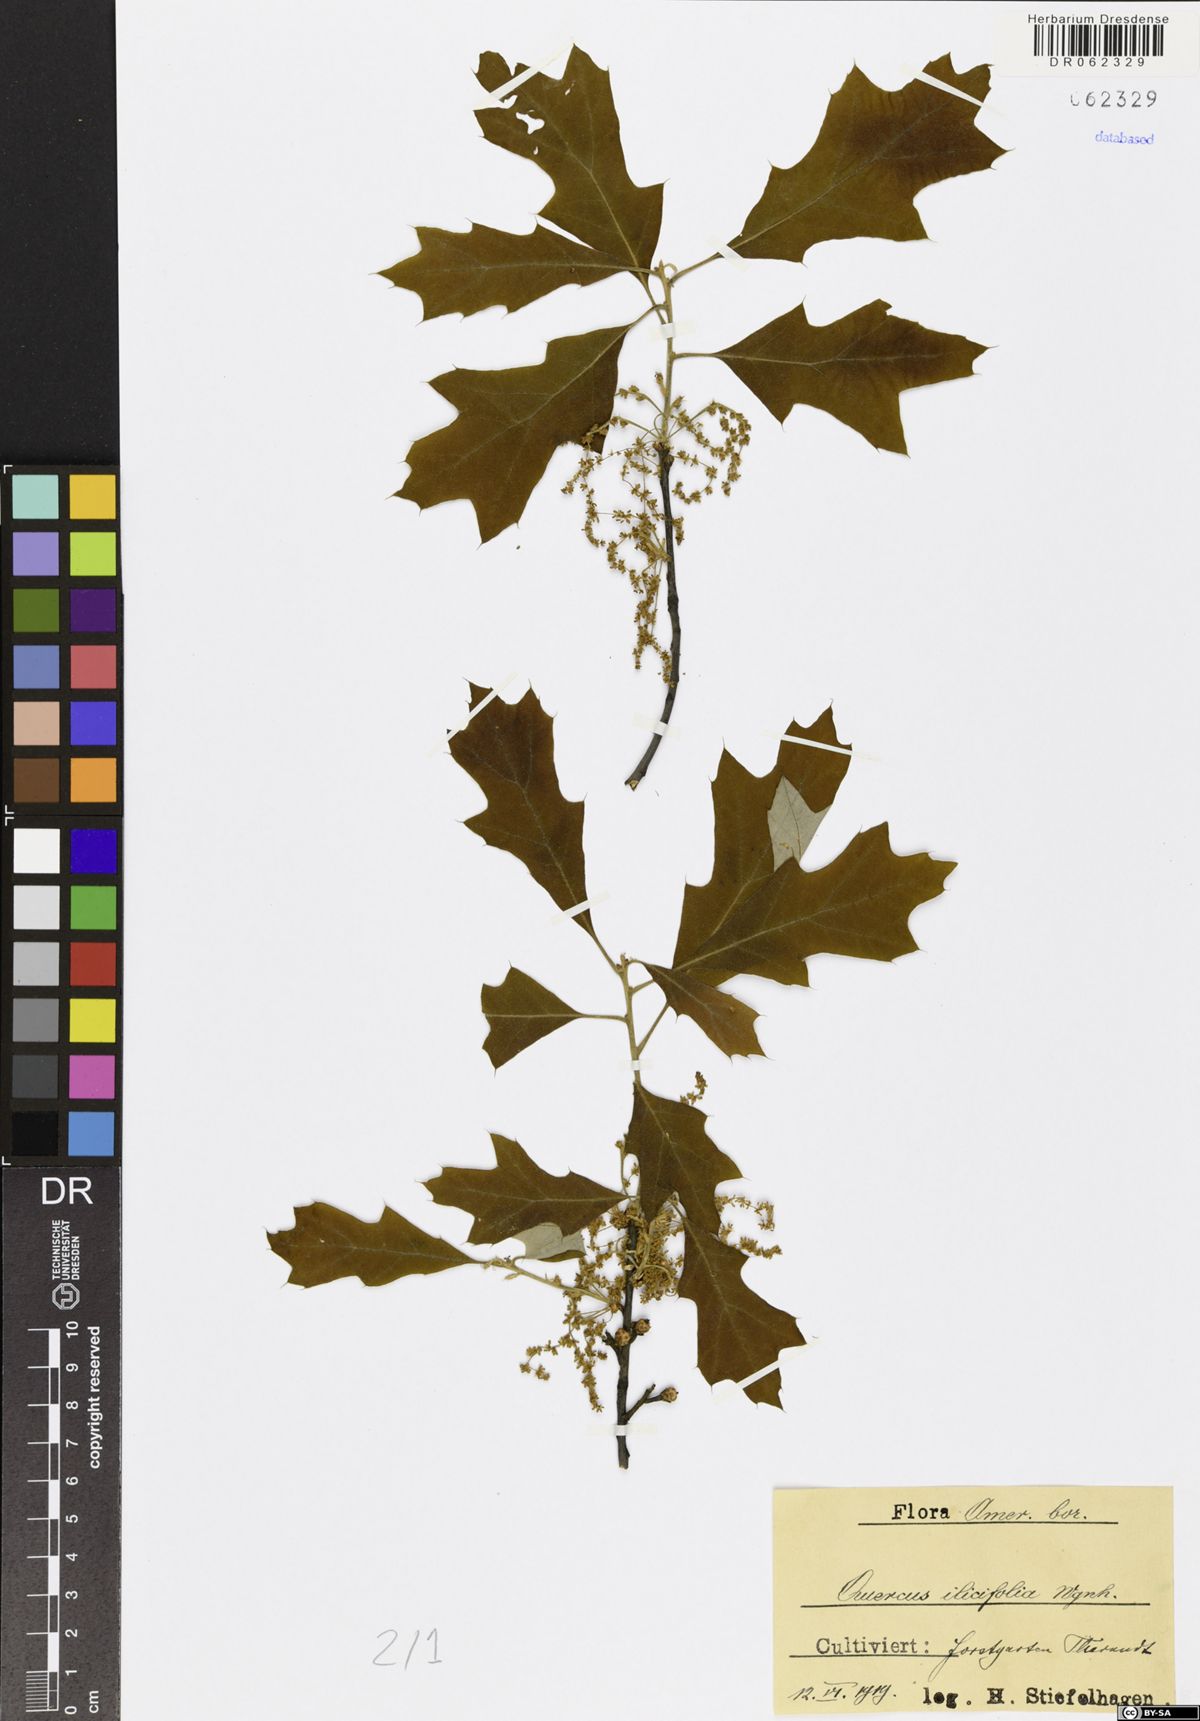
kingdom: Plantae
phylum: Tracheophyta
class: Magnoliopsida
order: Fagales
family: Fagaceae
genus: Quercus
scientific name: Quercus ilicifolia
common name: Bear oak
